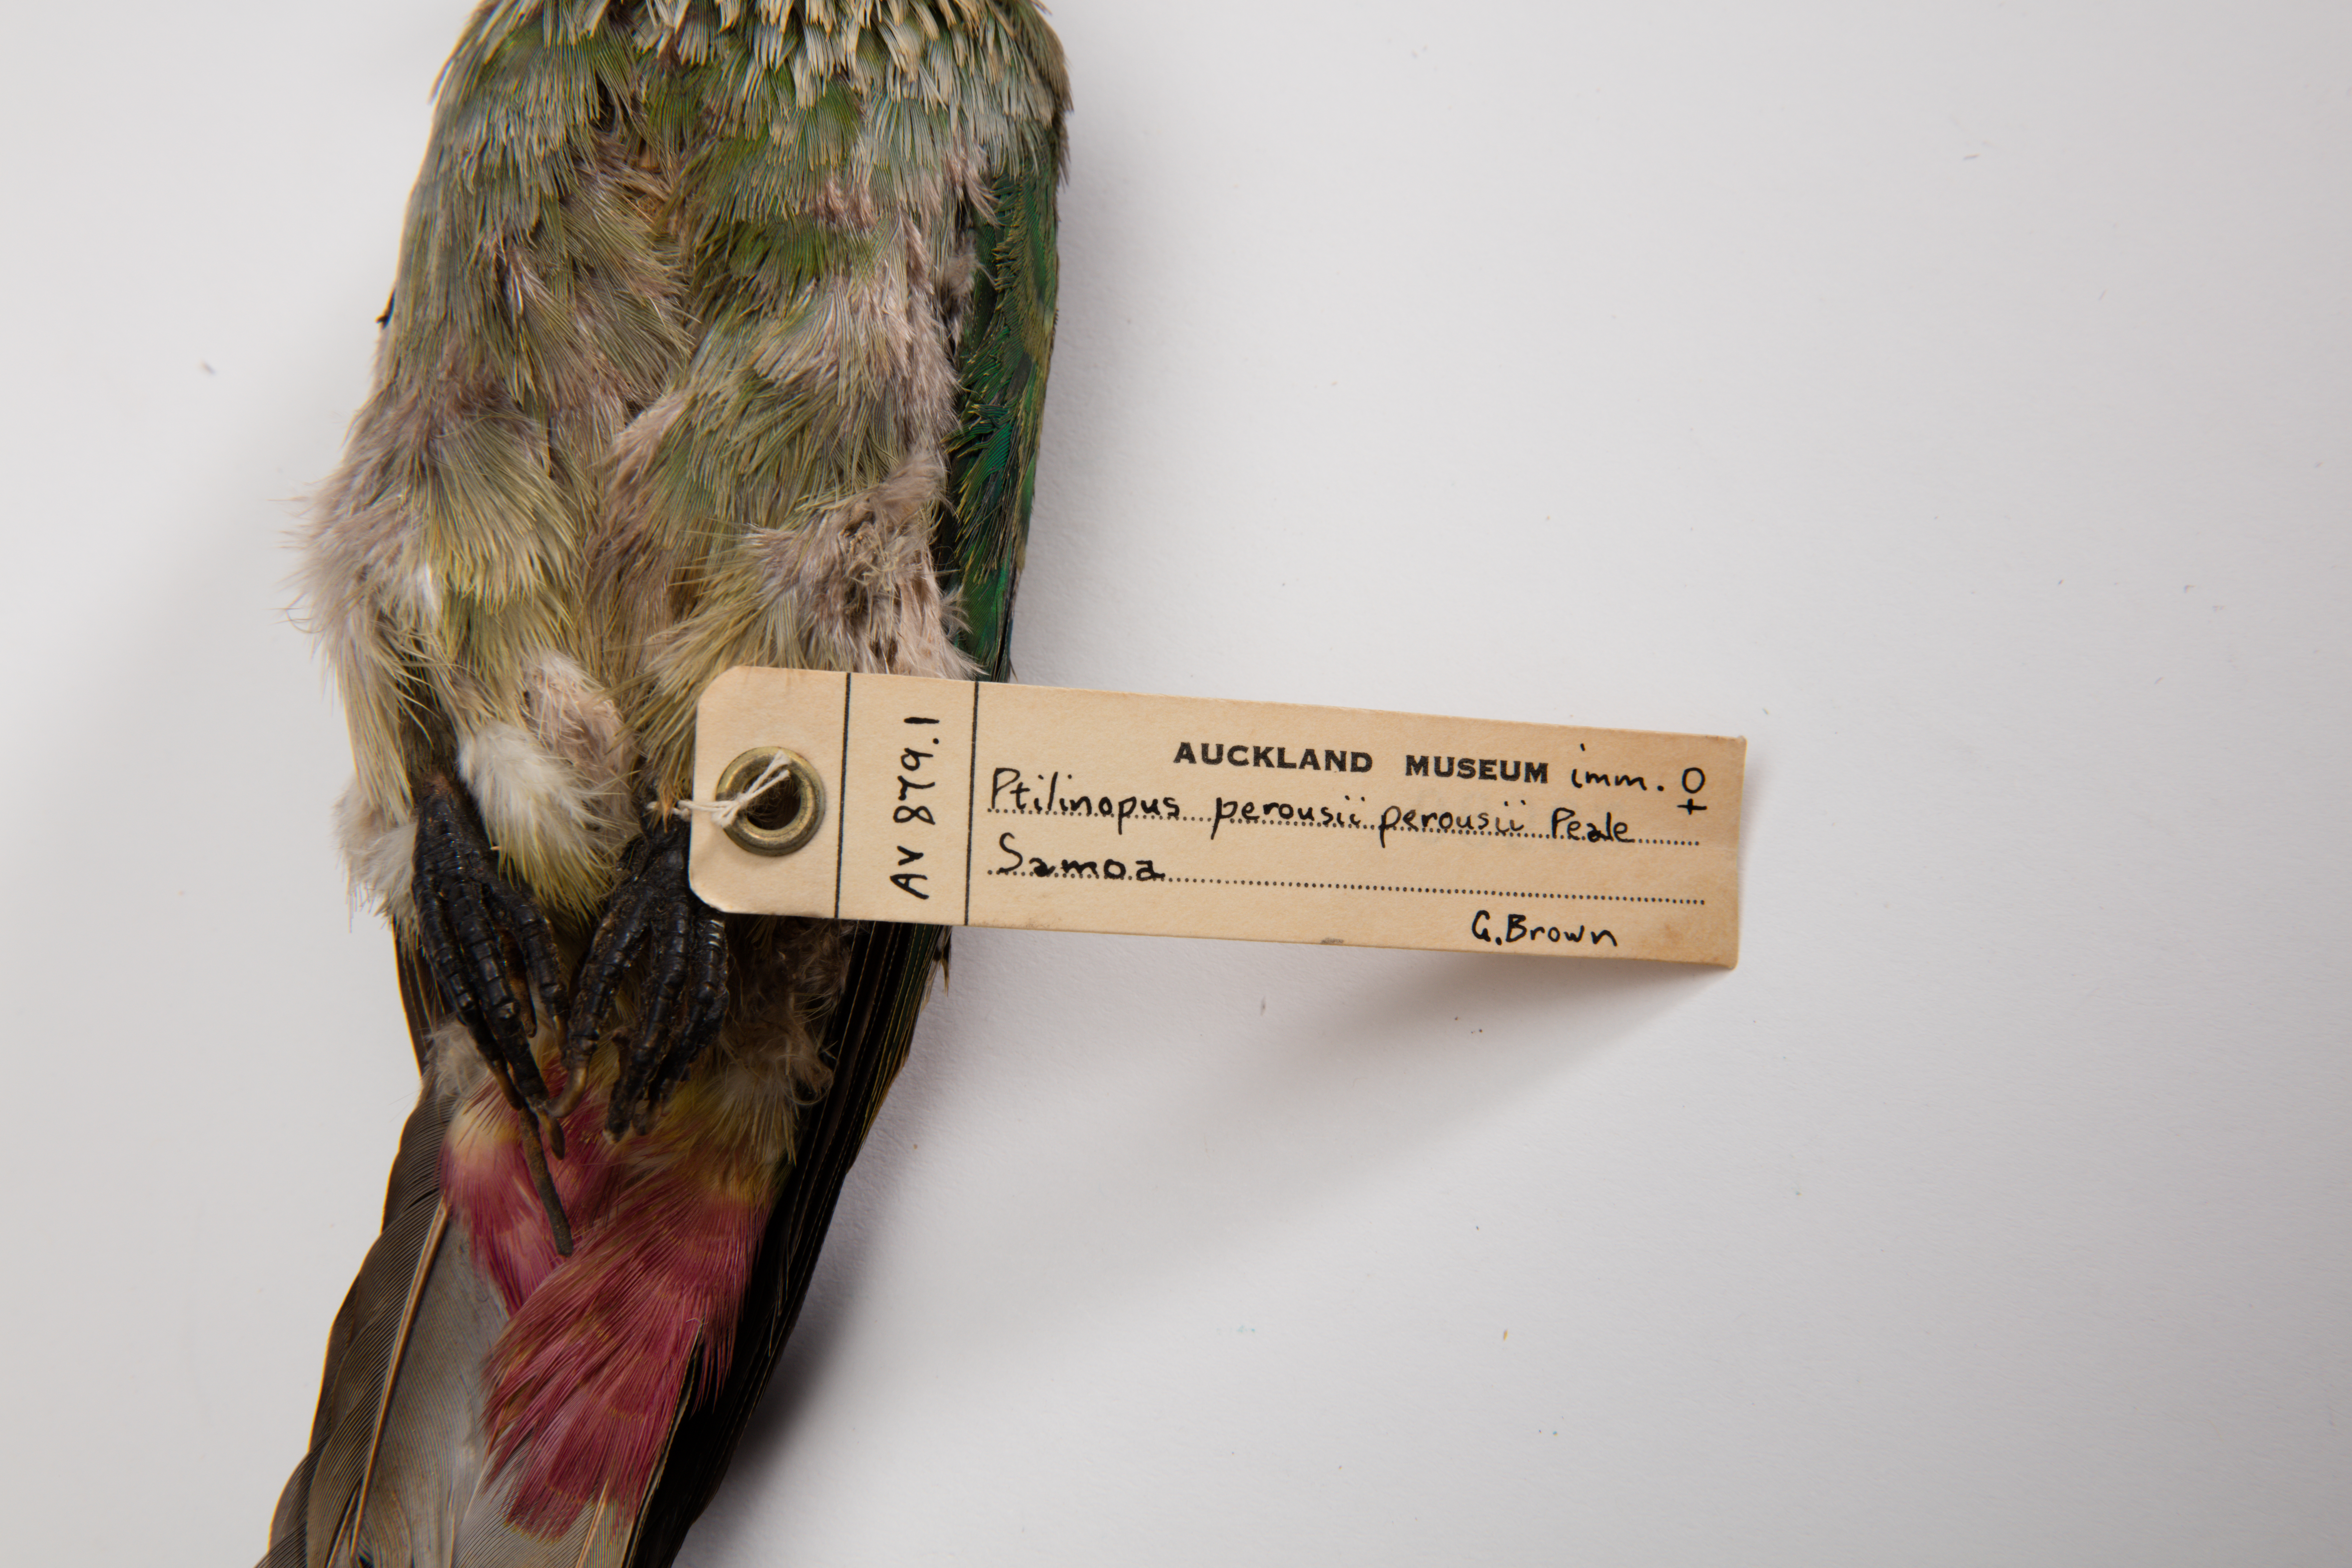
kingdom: Animalia
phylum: Chordata
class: Aves
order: Columbiformes
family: Columbidae
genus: Ptilinopus
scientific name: Ptilinopus perousii
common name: Many-colored fruit-dove
